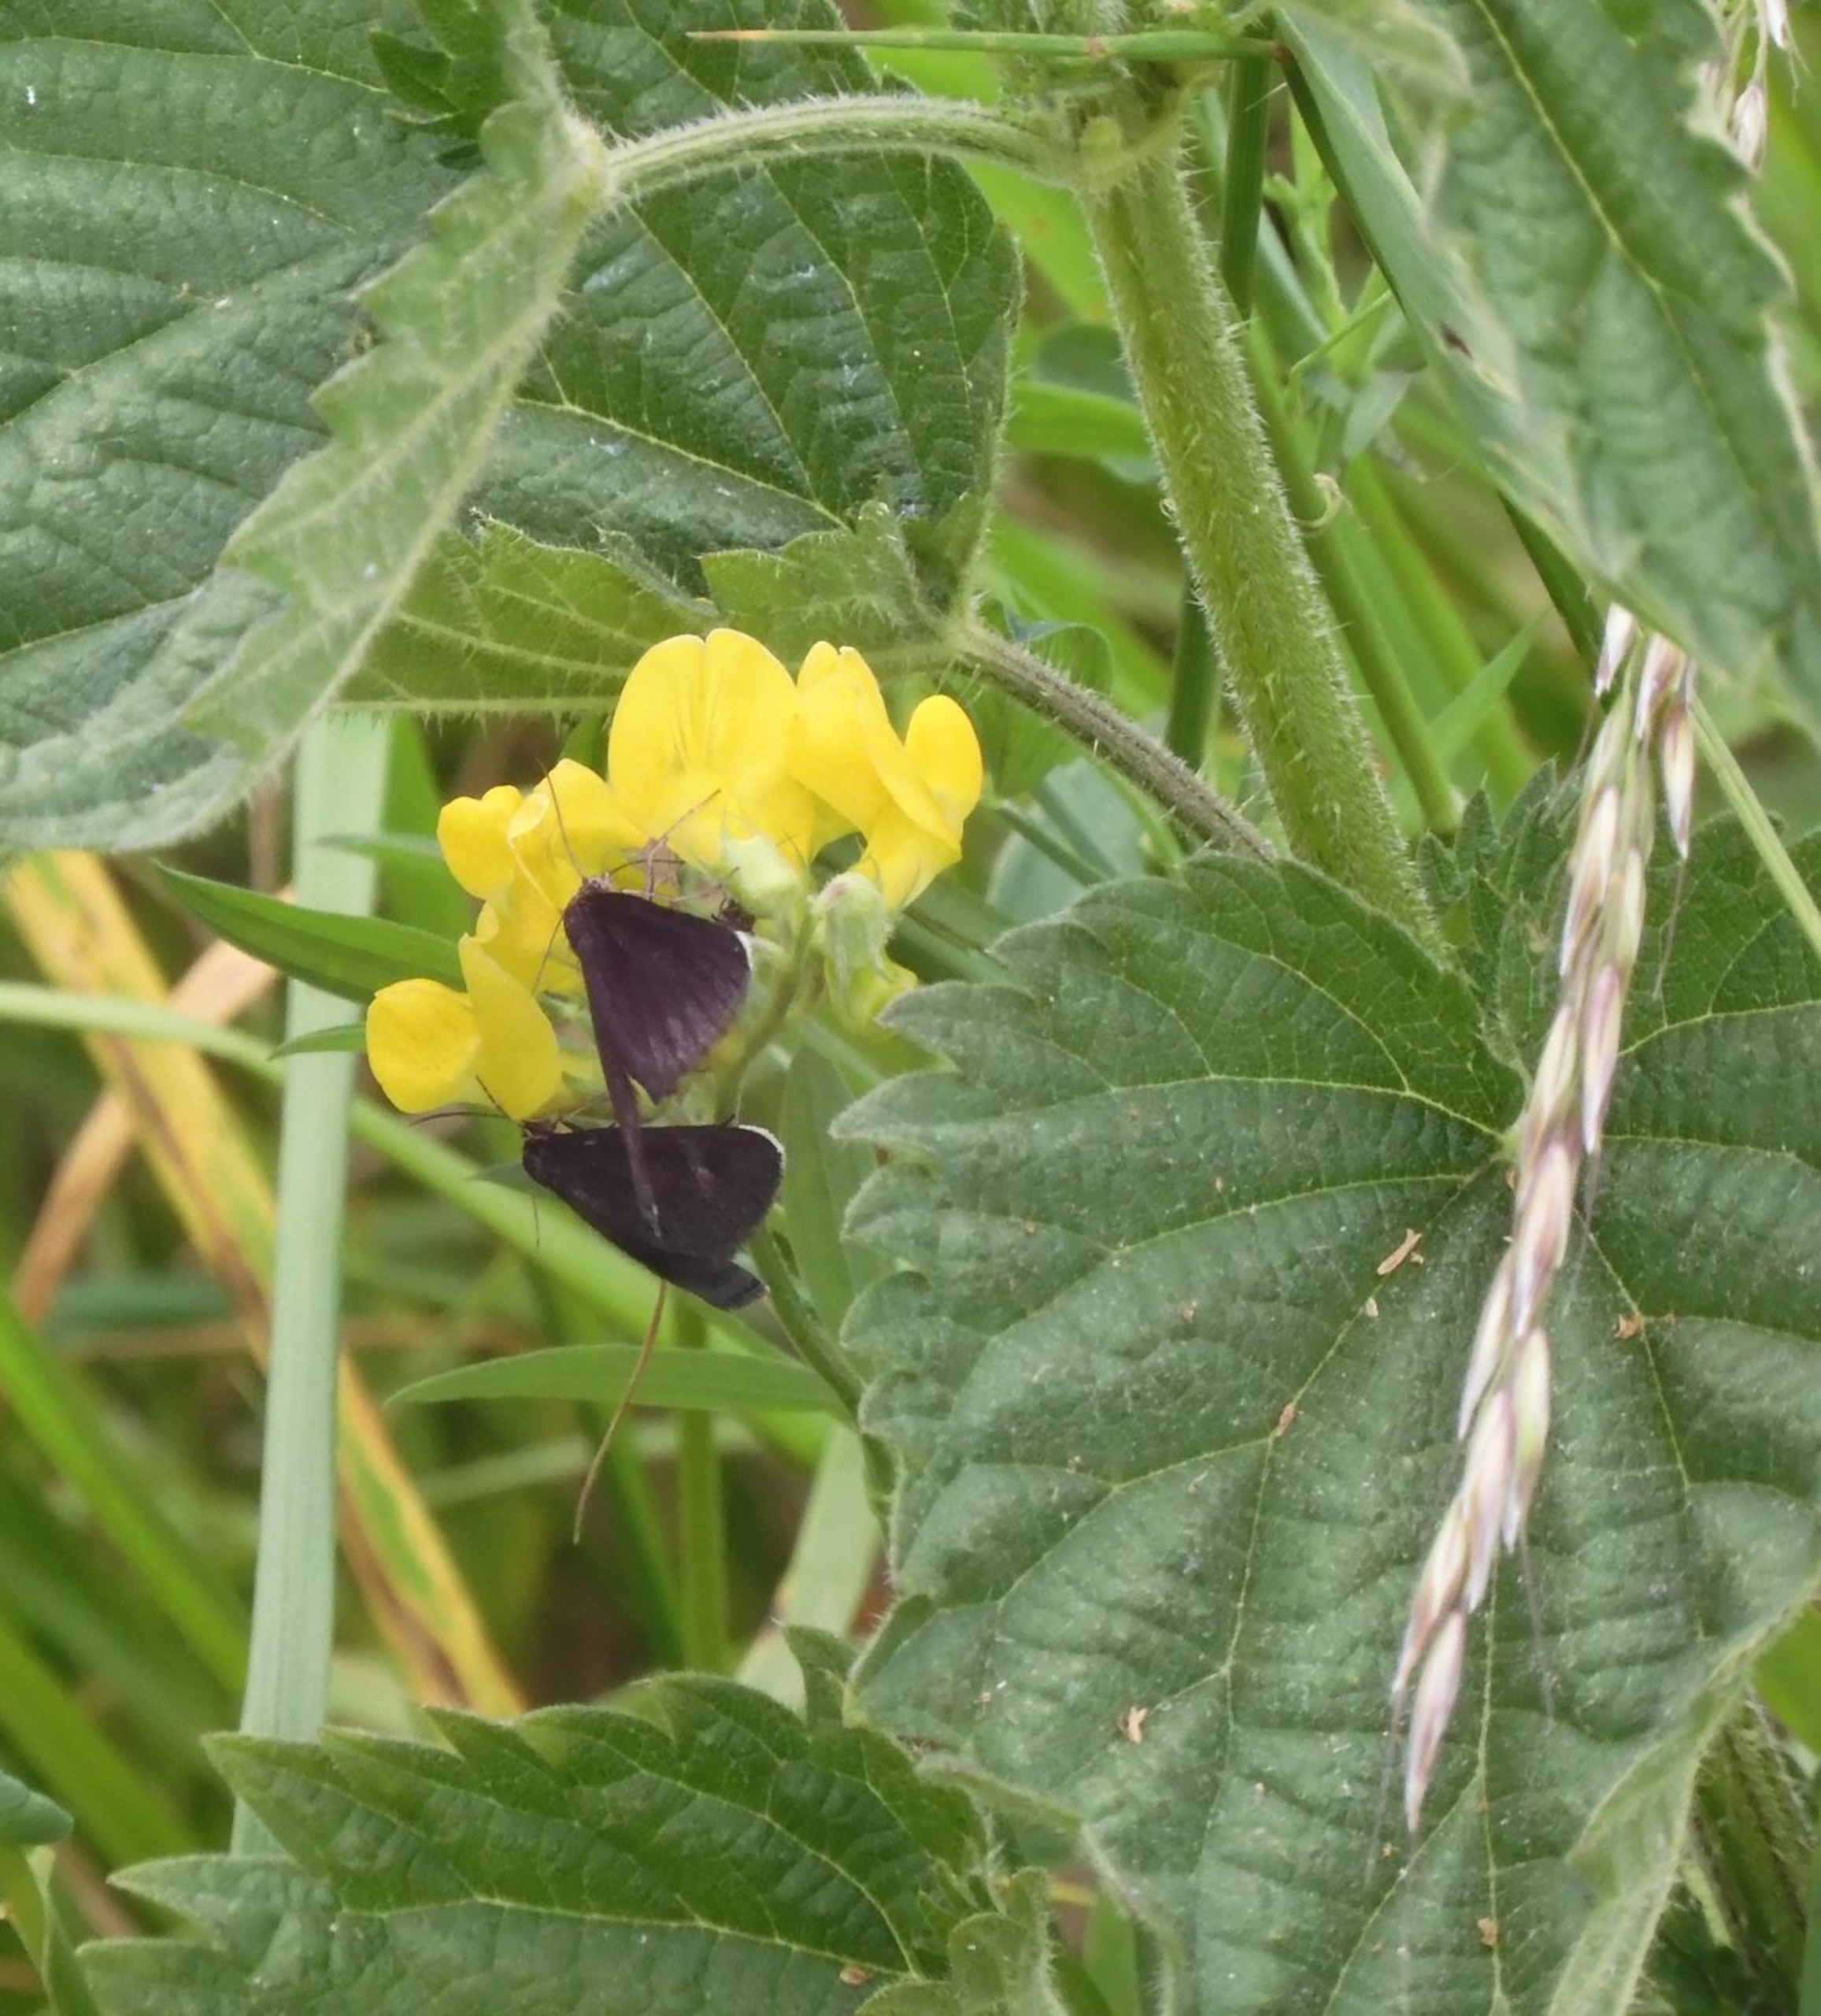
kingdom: Animalia
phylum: Arthropoda
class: Insecta
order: Lepidoptera
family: Geometridae
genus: Odezia
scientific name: Odezia atrata
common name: Sort måler
